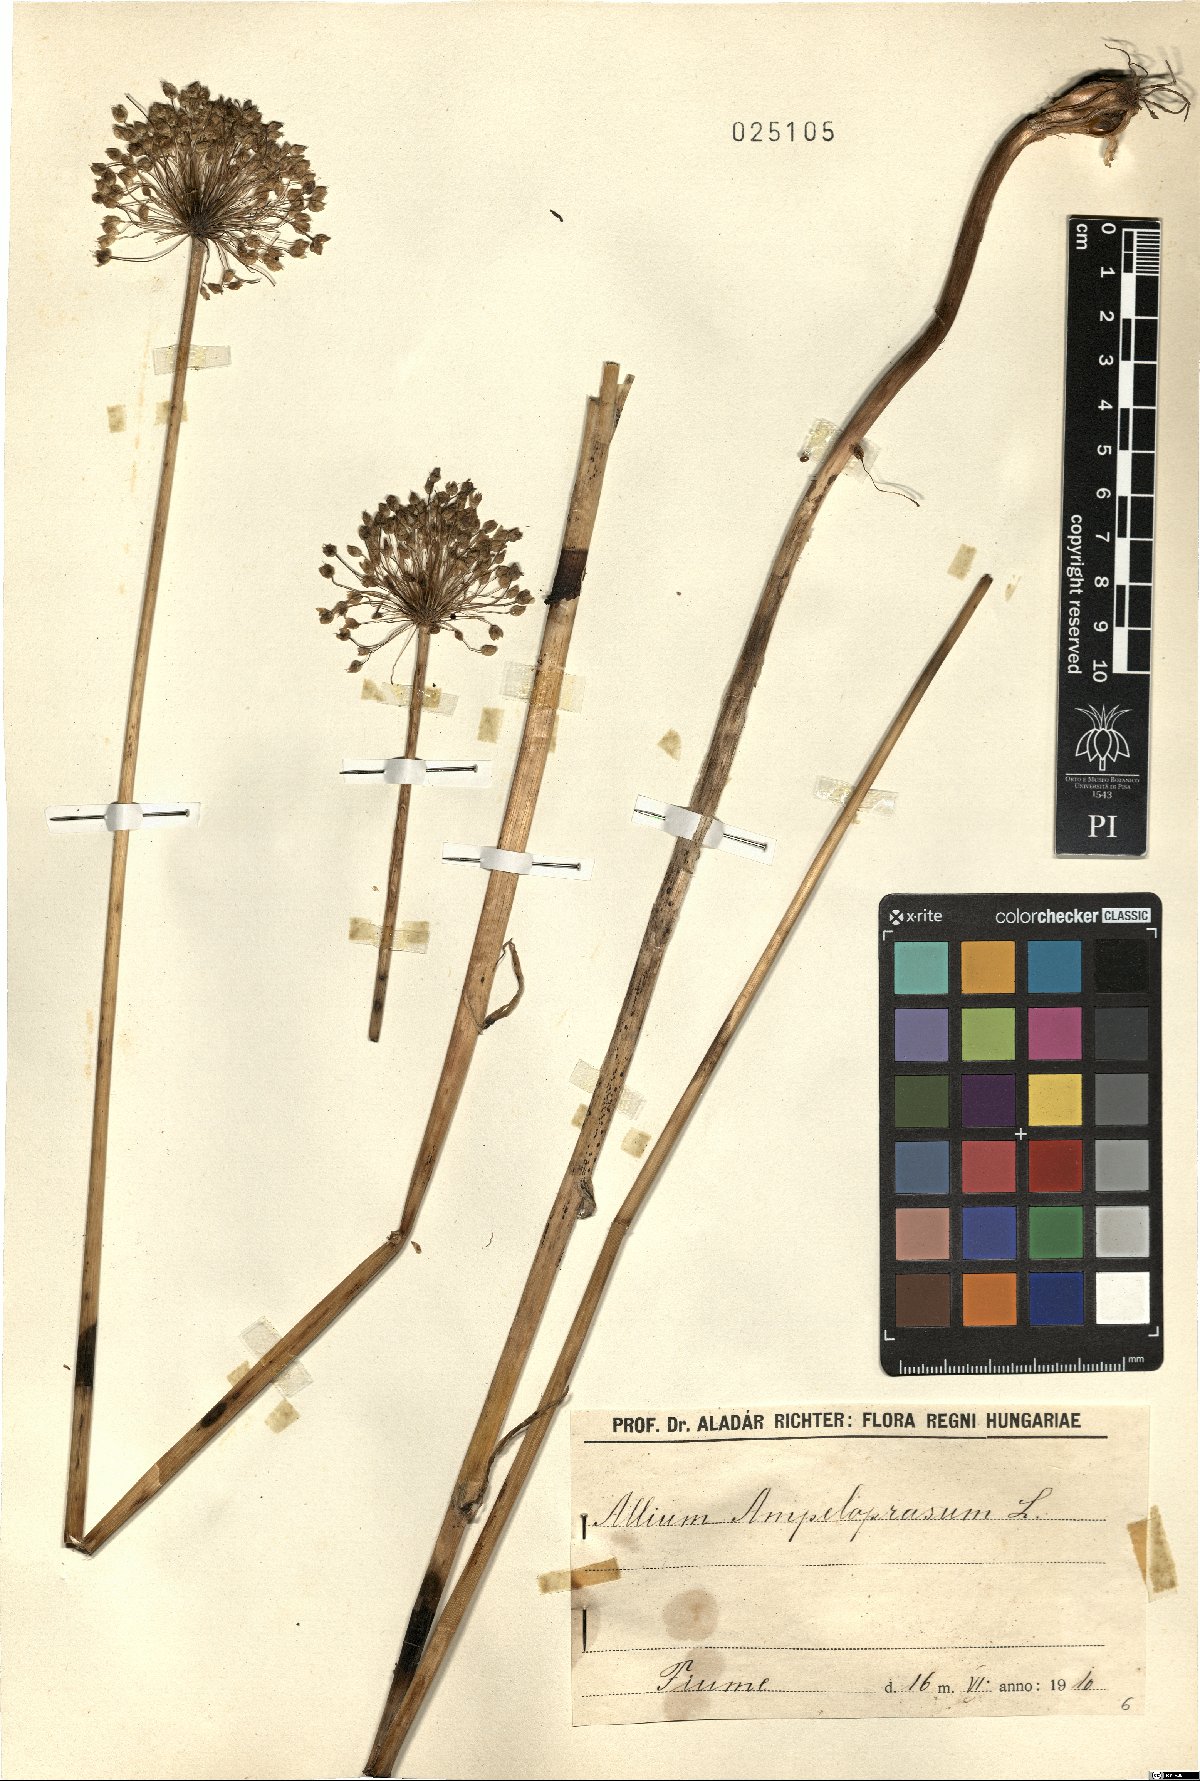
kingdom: Plantae
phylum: Tracheophyta
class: Liliopsida
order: Asparagales
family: Amaryllidaceae
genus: Allium
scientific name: Allium ampeloprasum
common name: Wild leek
